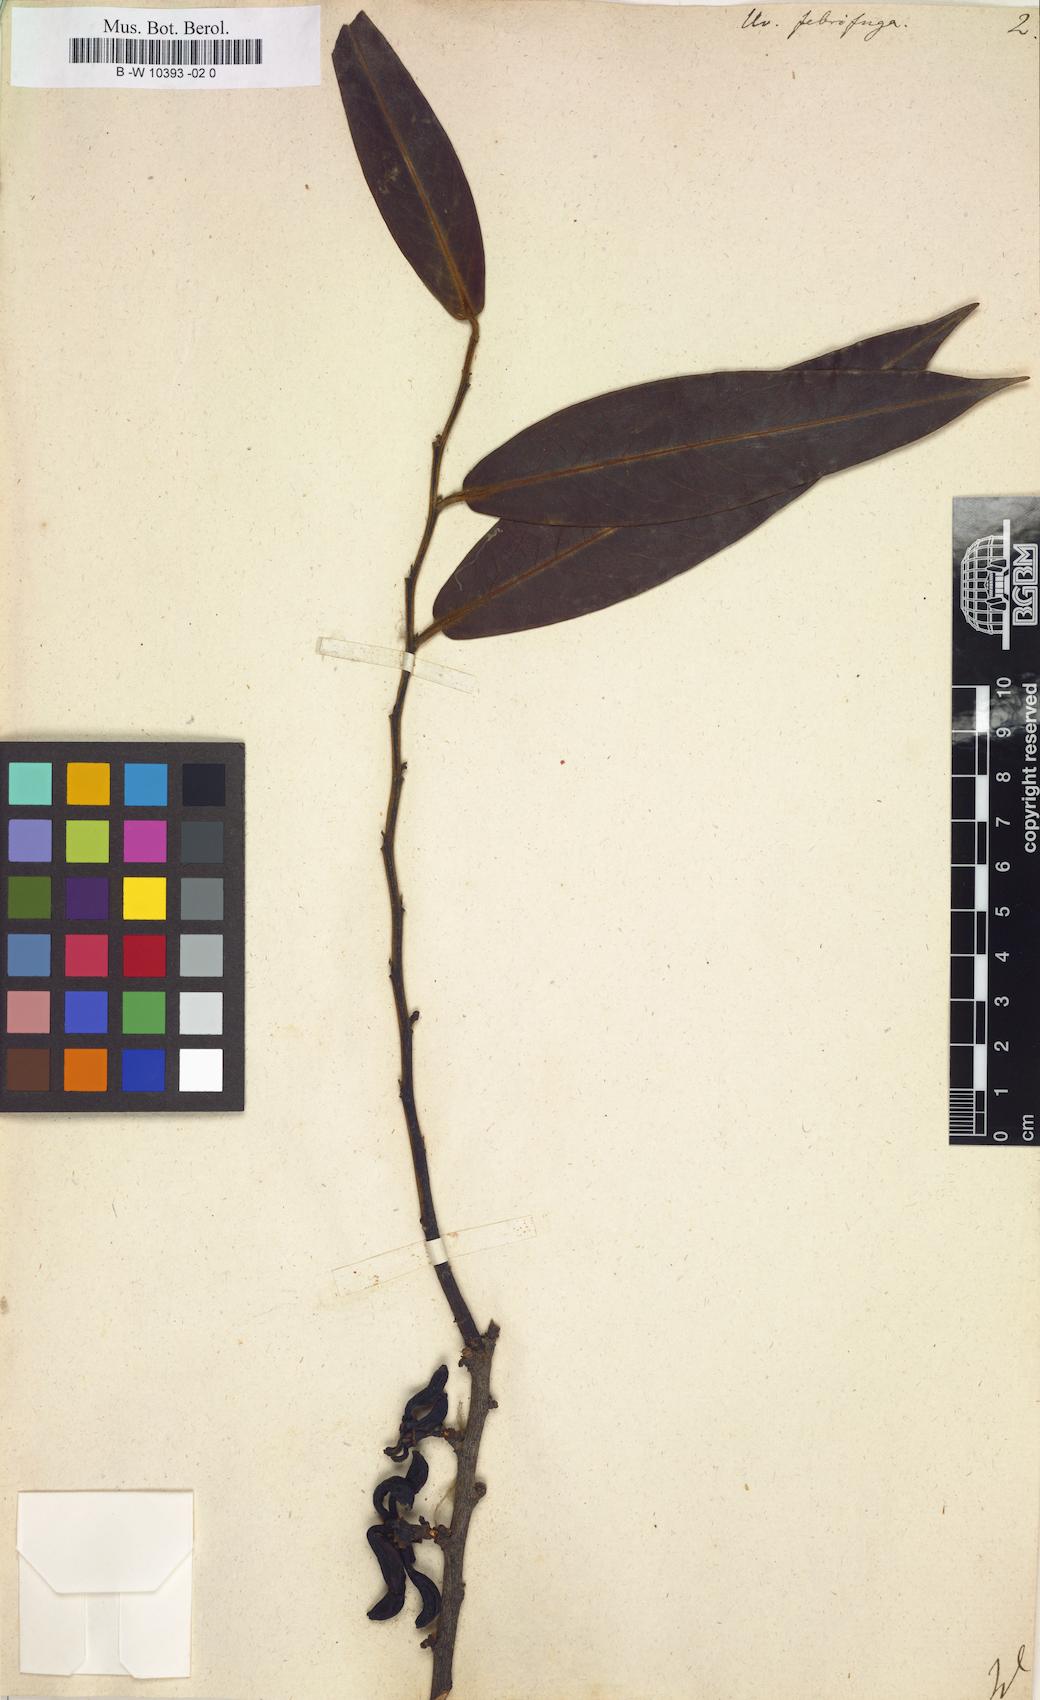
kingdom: Plantae
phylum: Tracheophyta
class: Magnoliopsida
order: Magnoliales
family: Annonaceae
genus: Xylopia
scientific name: Xylopia
